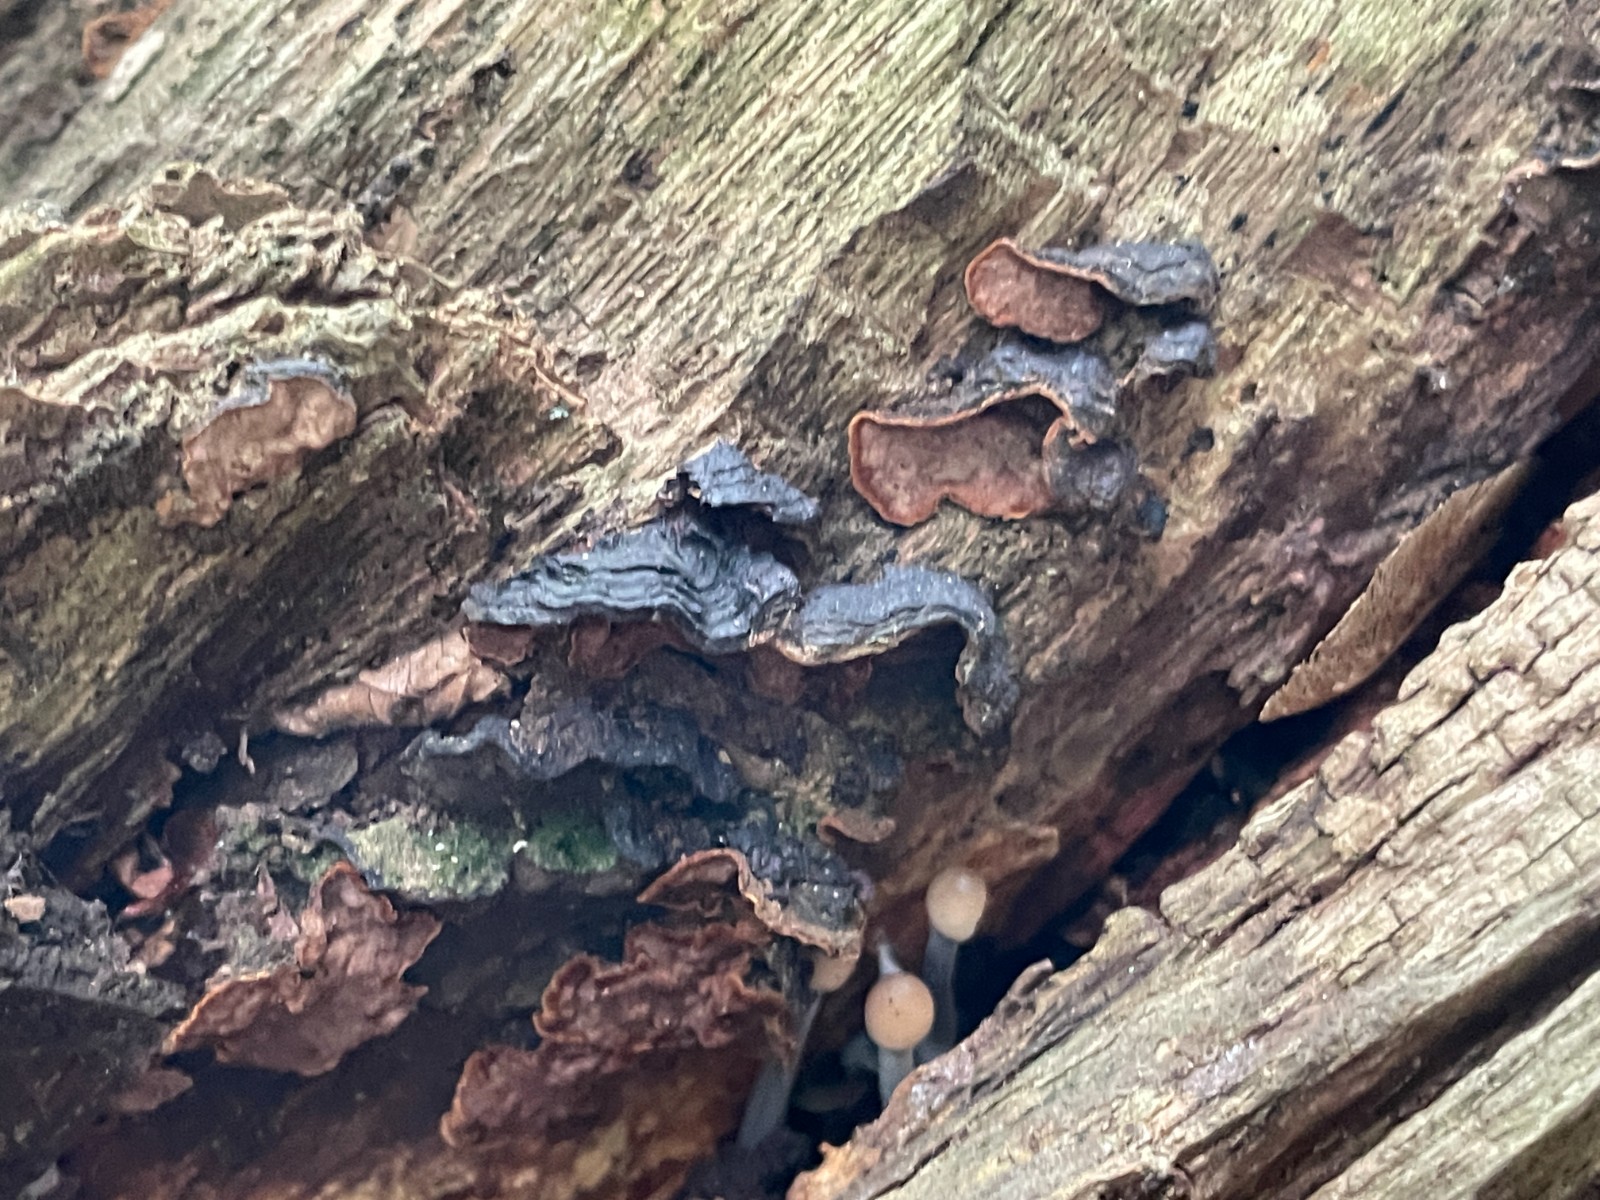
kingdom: Fungi
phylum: Basidiomycota
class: Agaricomycetes
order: Hymenochaetales
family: Hymenochaetaceae
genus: Hymenochaete
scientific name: Hymenochaete rubiginosa
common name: stiv ruslædersvamp
